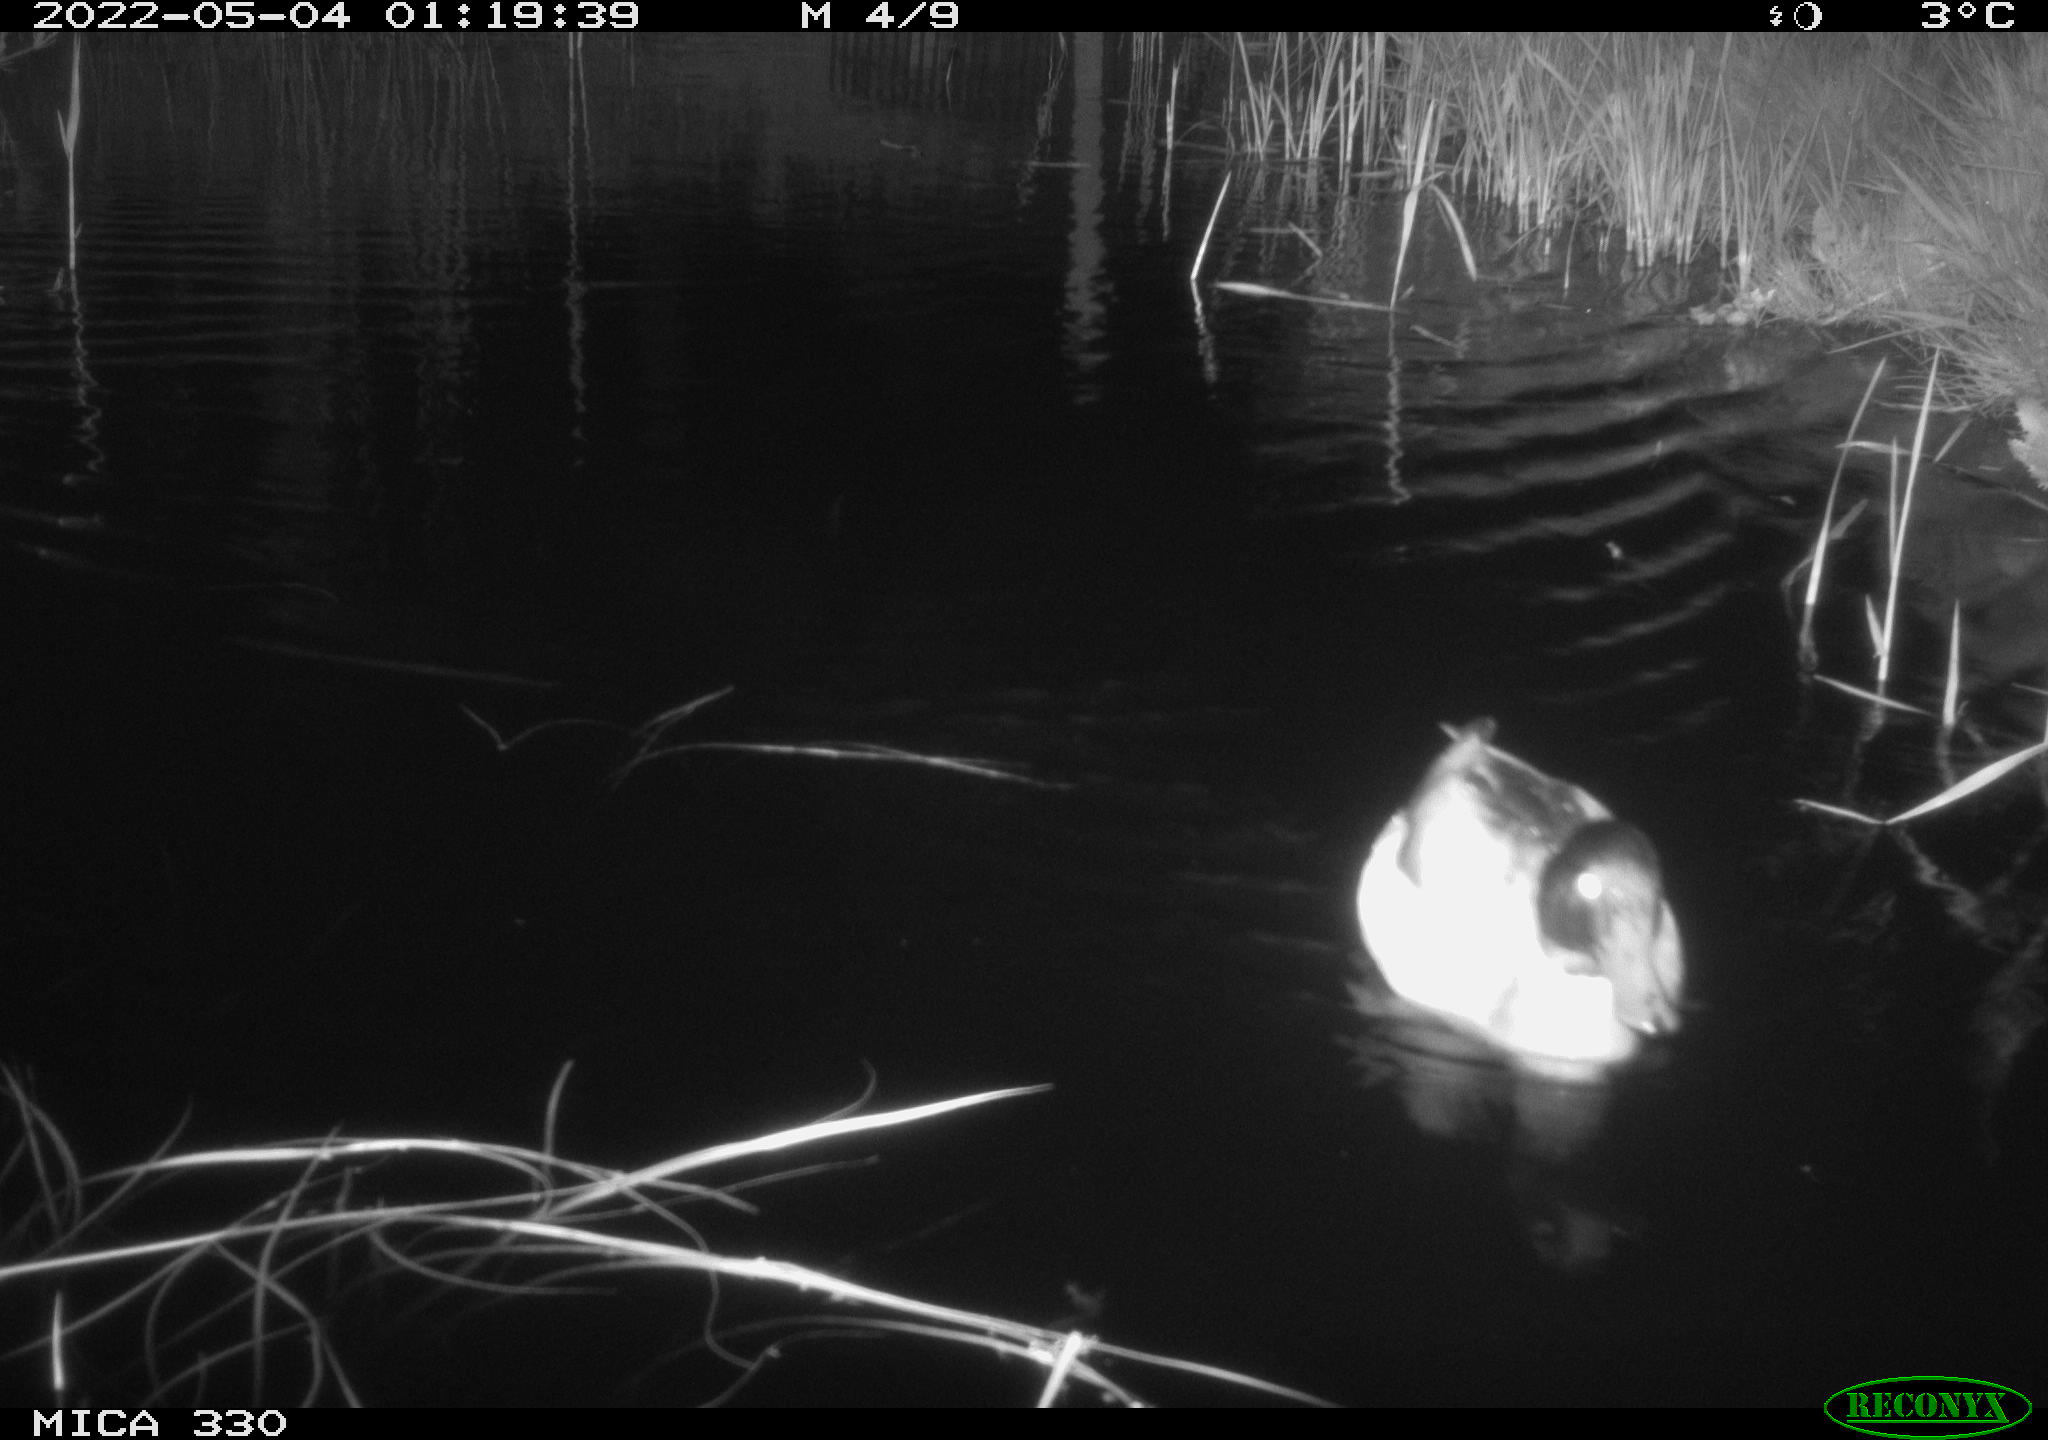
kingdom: Animalia
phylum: Chordata
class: Aves
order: Anseriformes
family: Anatidae
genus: Anas
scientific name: Anas platyrhynchos
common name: Mallard
